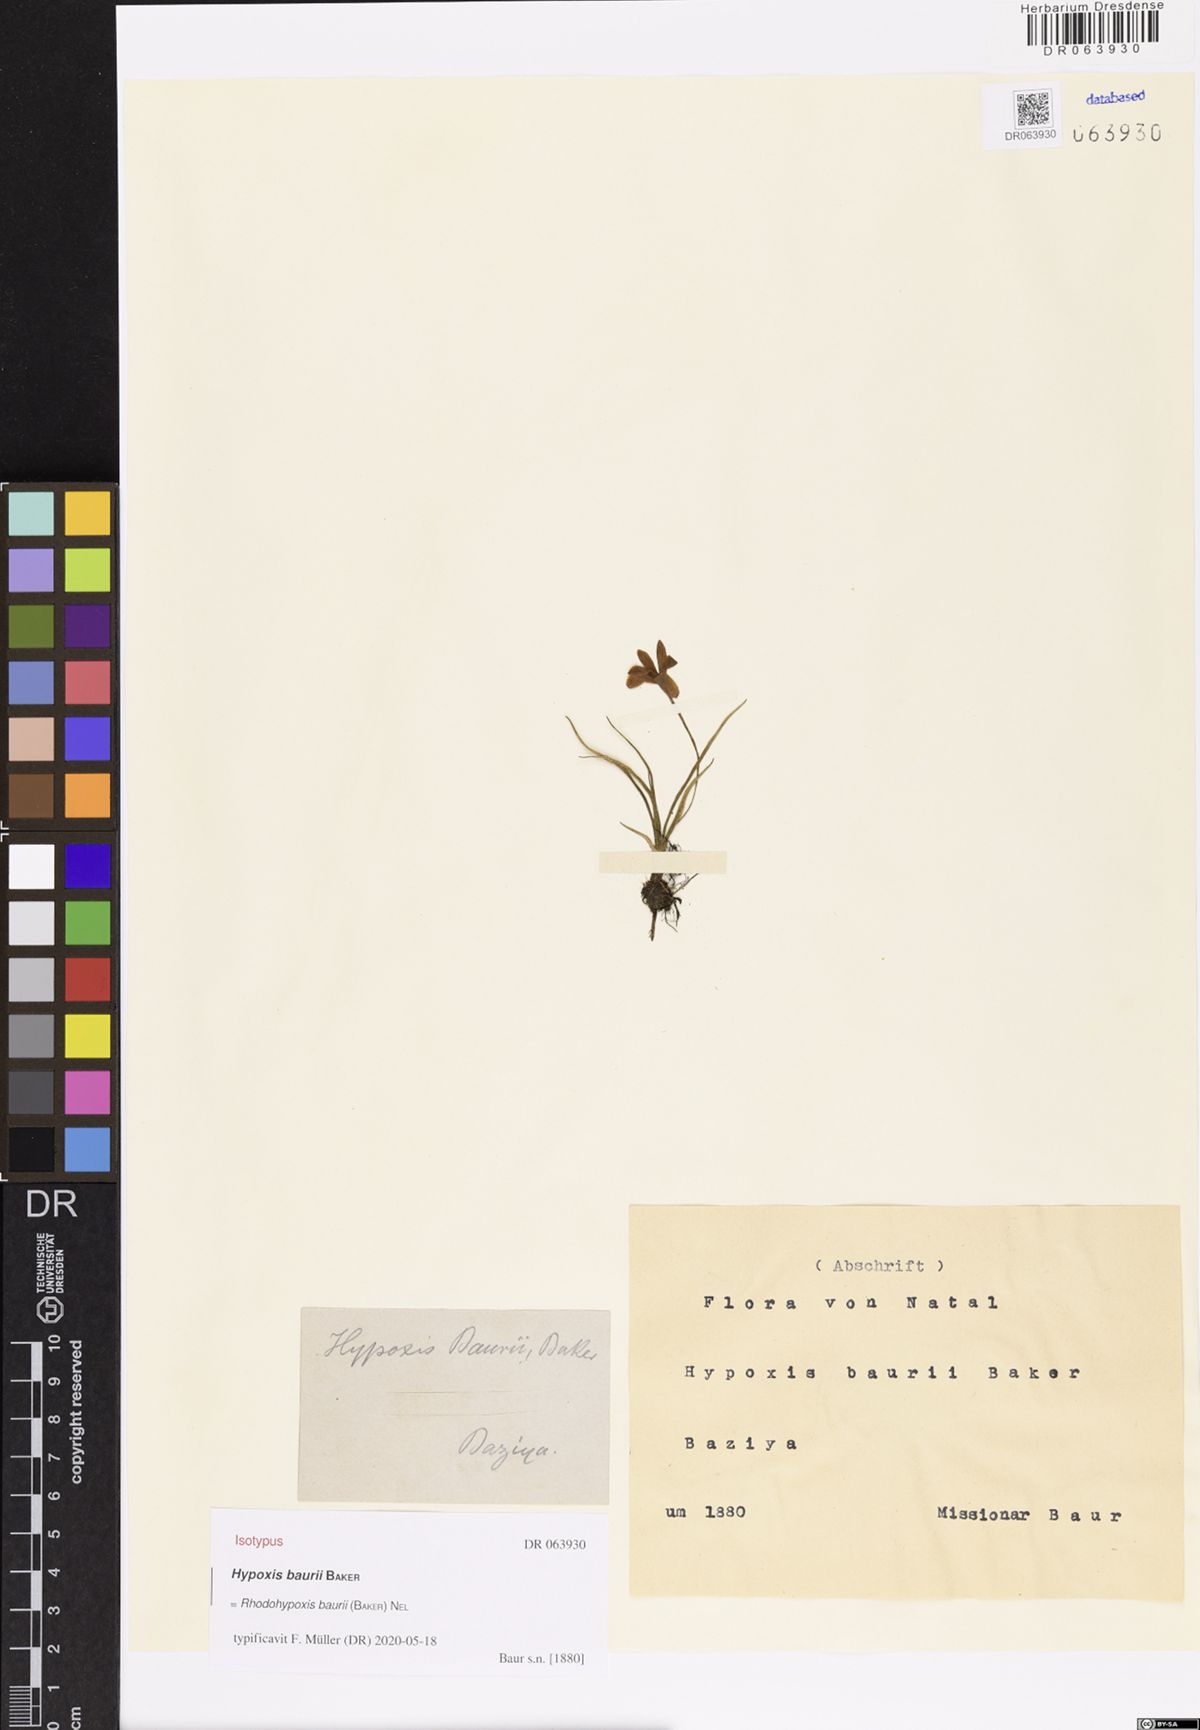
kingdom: Plantae
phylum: Tracheophyta
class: Liliopsida
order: Asparagales
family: Hypoxidaceae
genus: Hypoxis
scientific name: Hypoxis baurii
